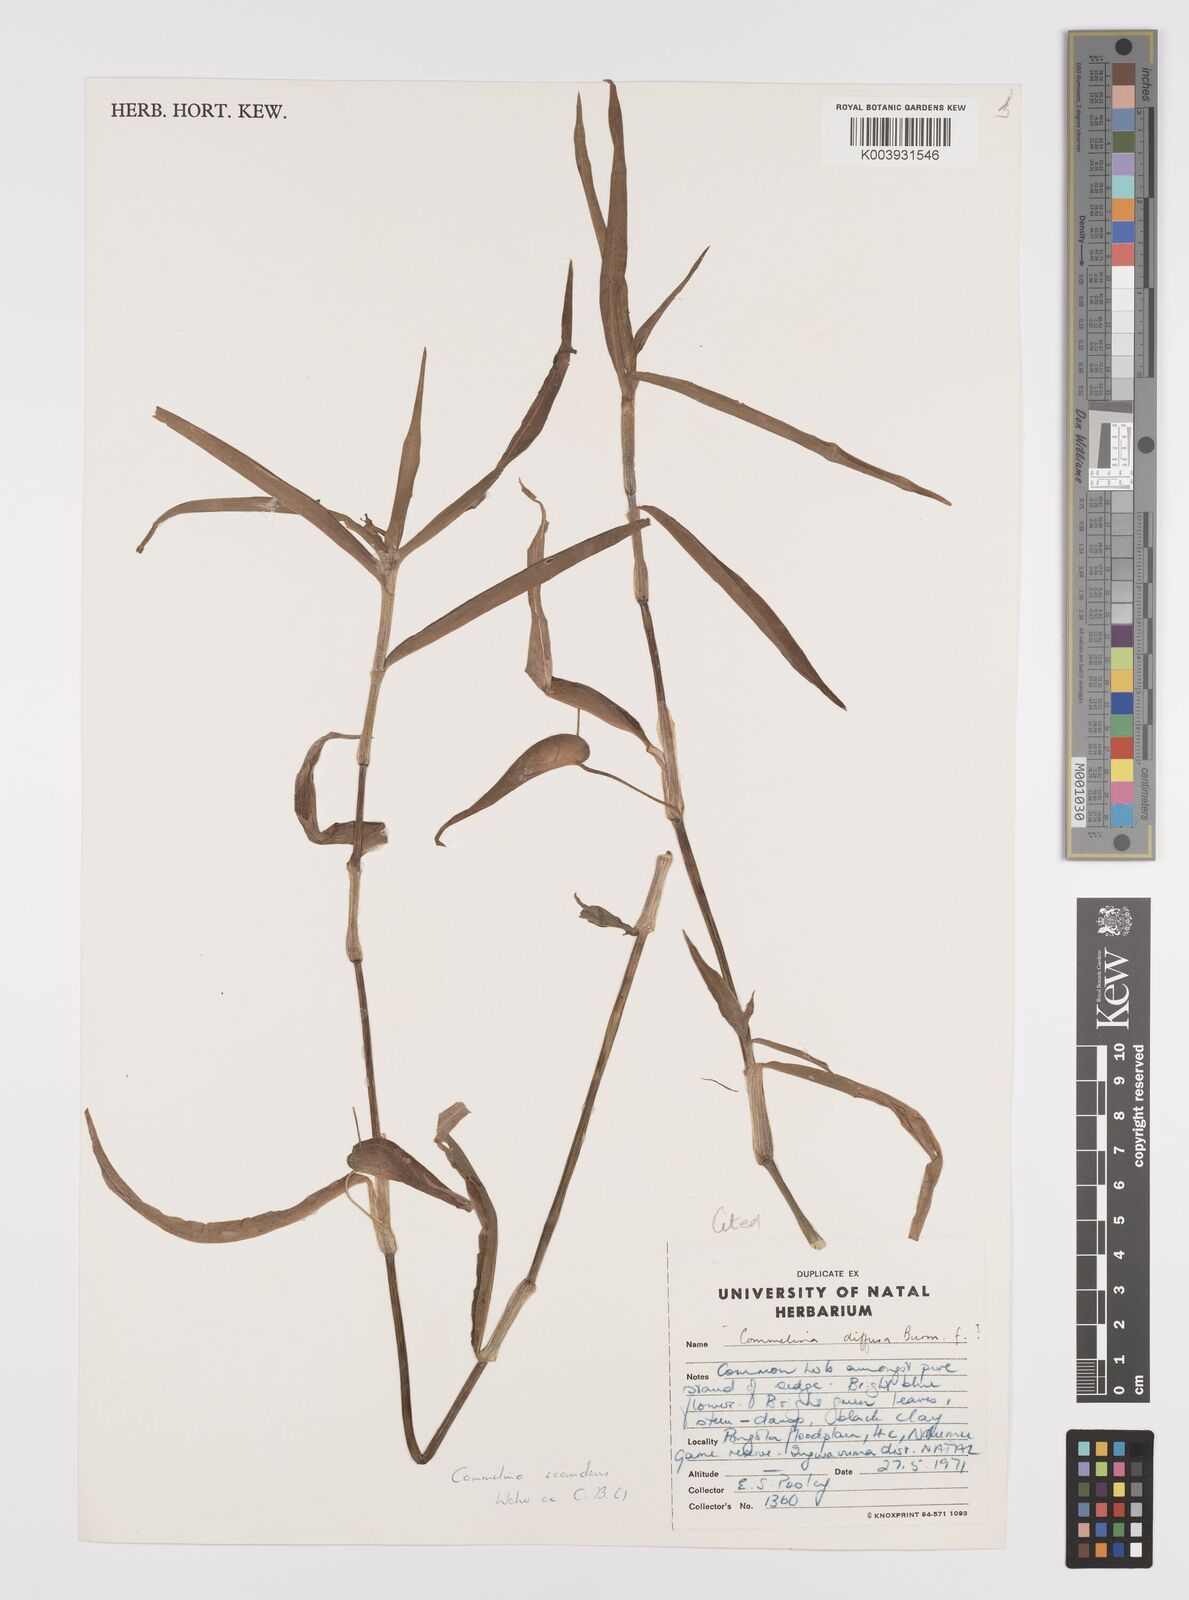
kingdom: Plantae
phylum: Tracheophyta
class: Liliopsida
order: Commelinales
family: Commelinaceae
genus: Commelina
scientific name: Commelina scandens
